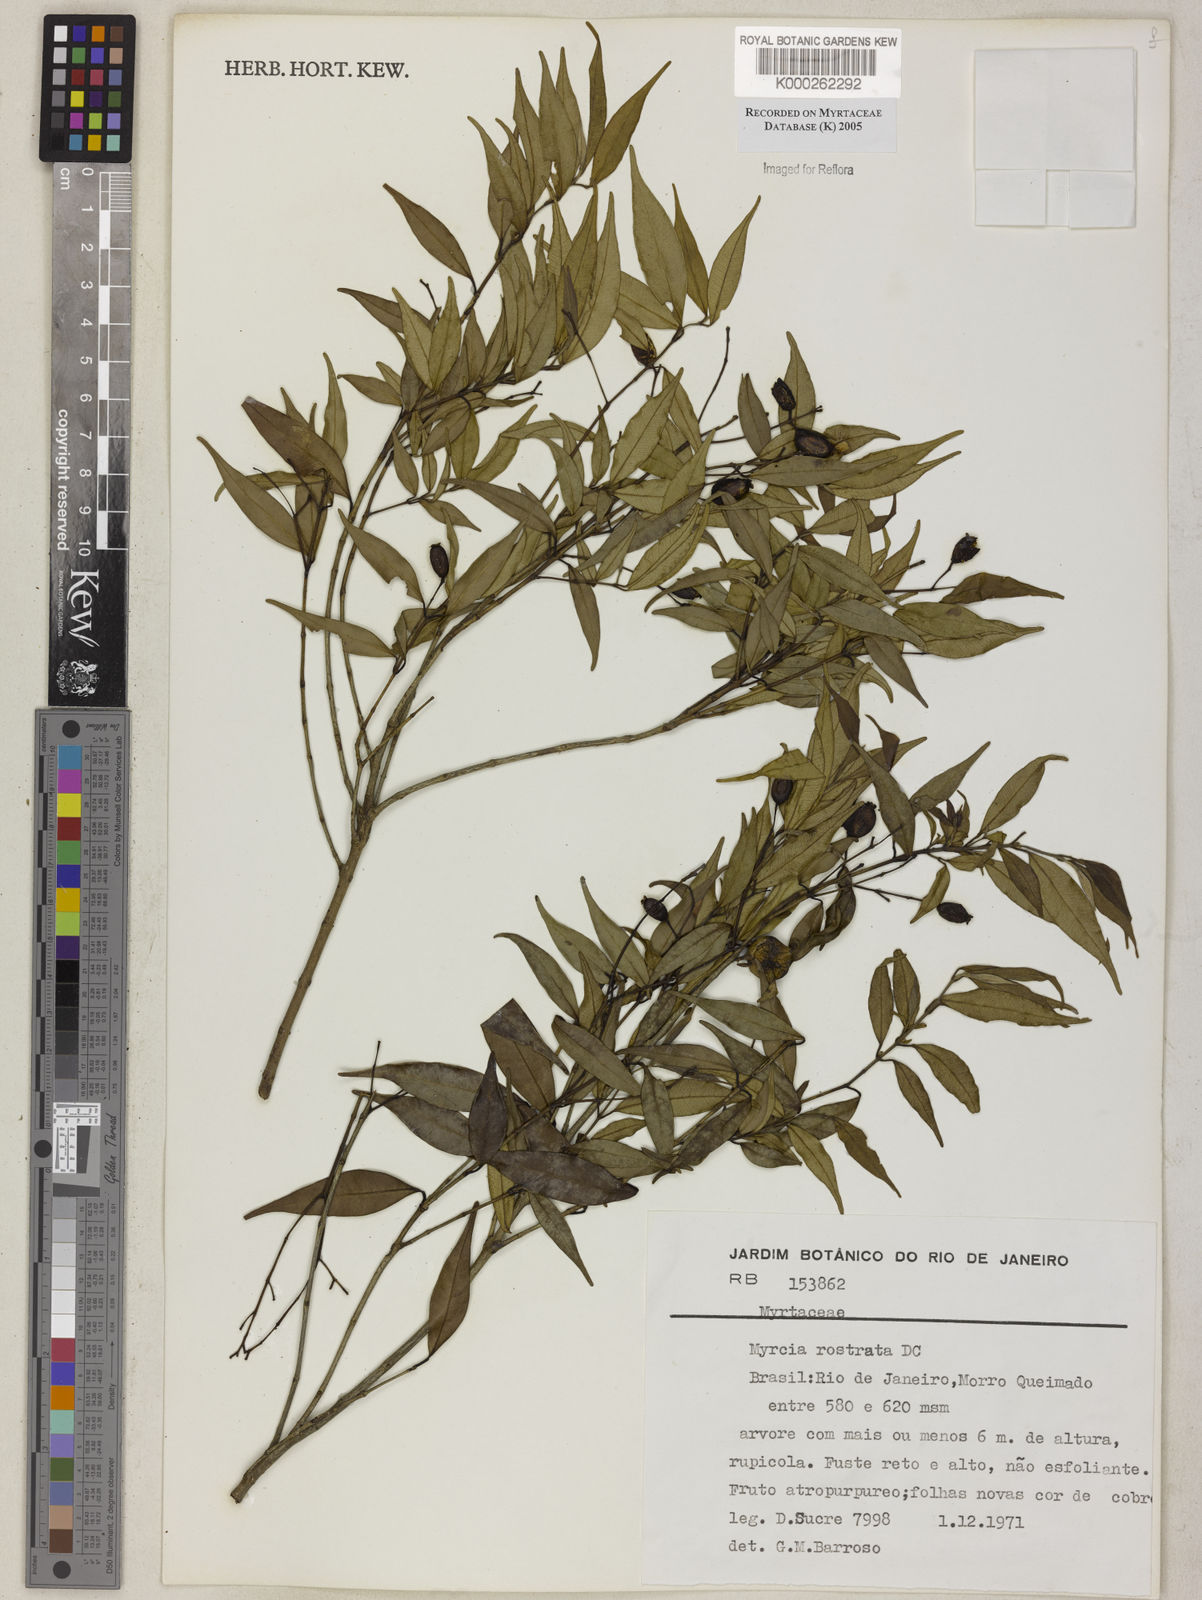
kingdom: Plantae
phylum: Tracheophyta
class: Magnoliopsida
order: Myrtales
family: Myrtaceae
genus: Myrcia
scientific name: Myrcia splendens
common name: Surinam cherry
